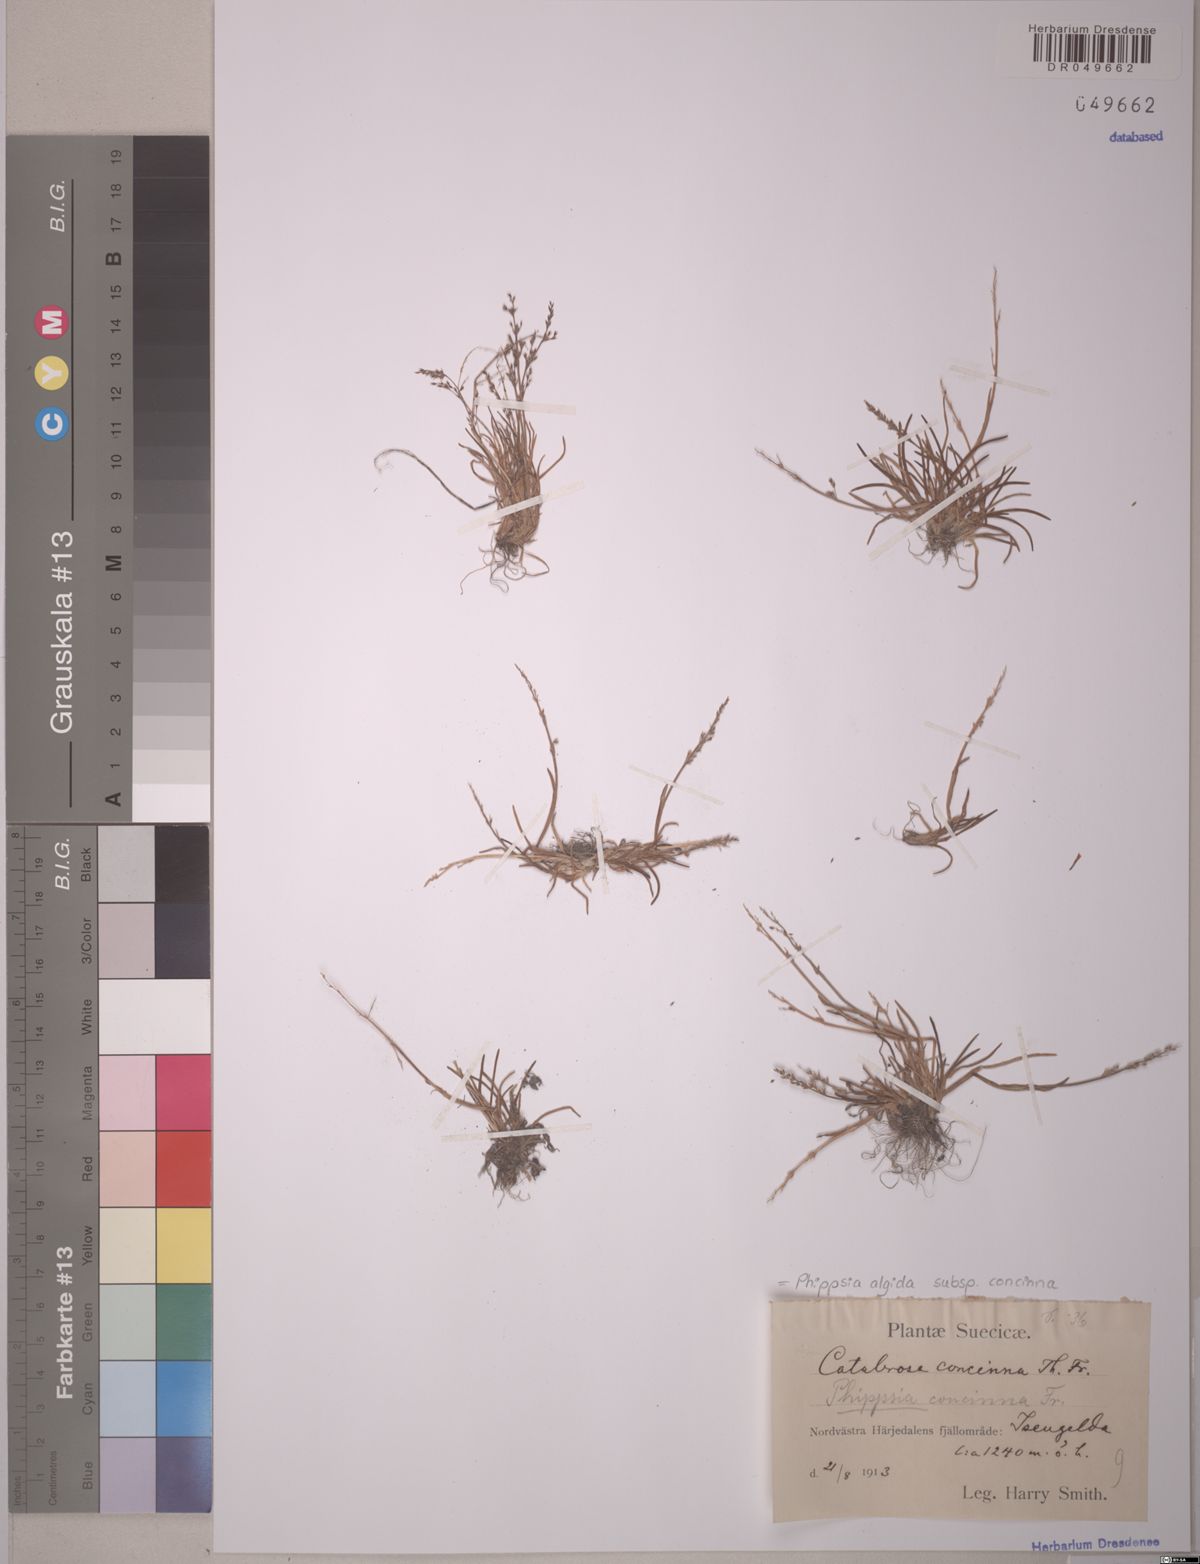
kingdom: Plantae
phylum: Tracheophyta
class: Liliopsida
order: Poales
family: Poaceae
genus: Phippsia
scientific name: Phippsia concinna
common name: Snowgrass
